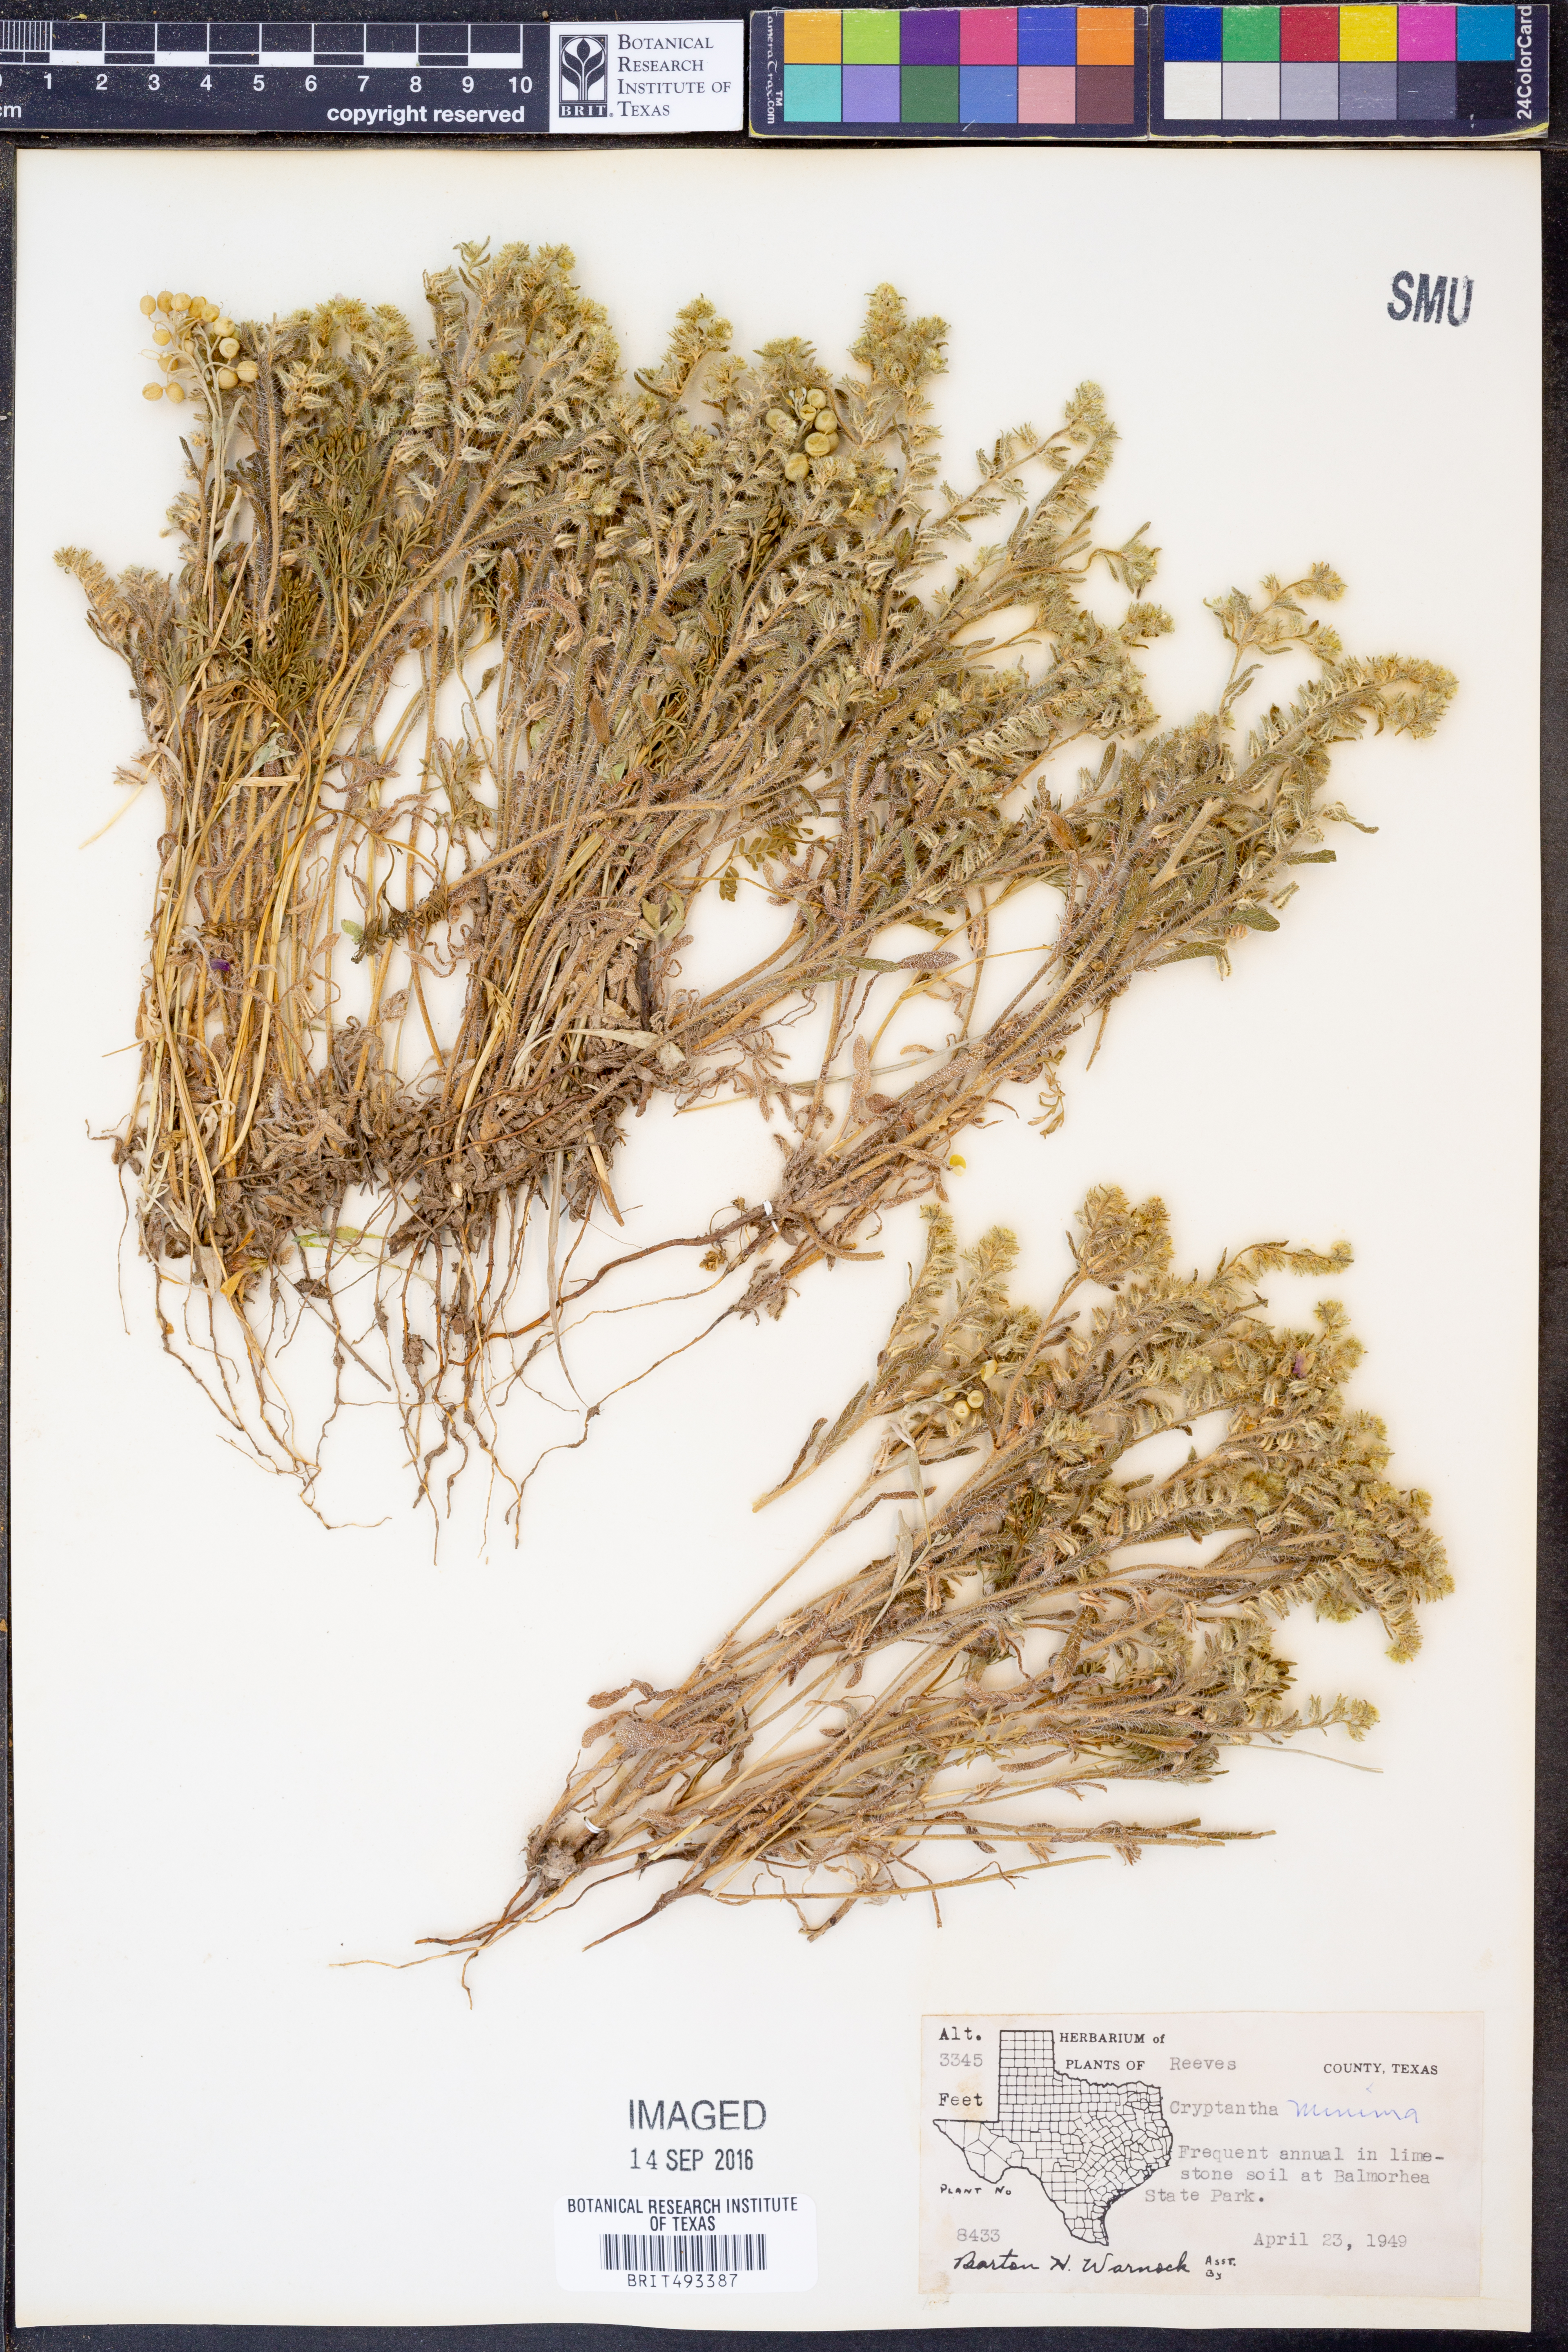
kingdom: Plantae
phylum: Tracheophyta
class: Magnoliopsida
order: Boraginales
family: Boraginaceae
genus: Cryptantha
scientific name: Cryptantha minima
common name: Little cat's-eye
